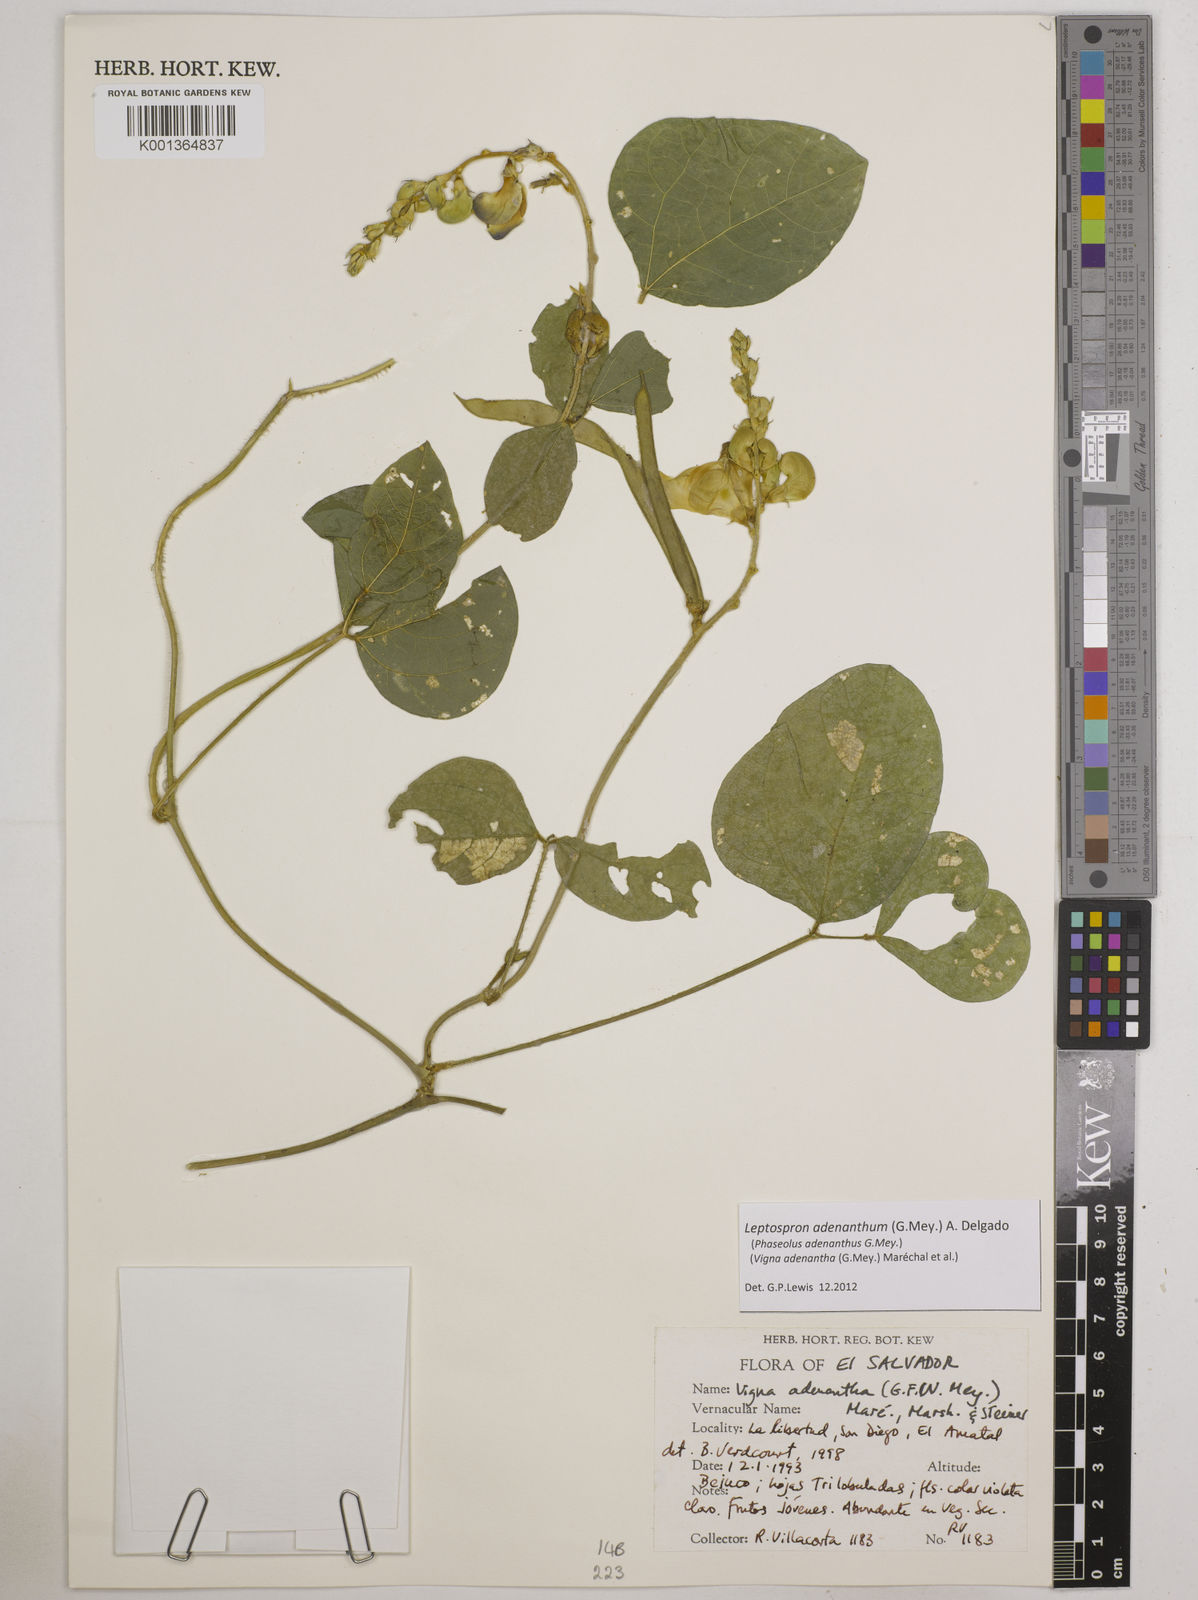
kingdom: Plantae
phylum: Tracheophyta
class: Magnoliopsida
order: Fabales
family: Fabaceae
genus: Leptospron
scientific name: Leptospron adenanthum
